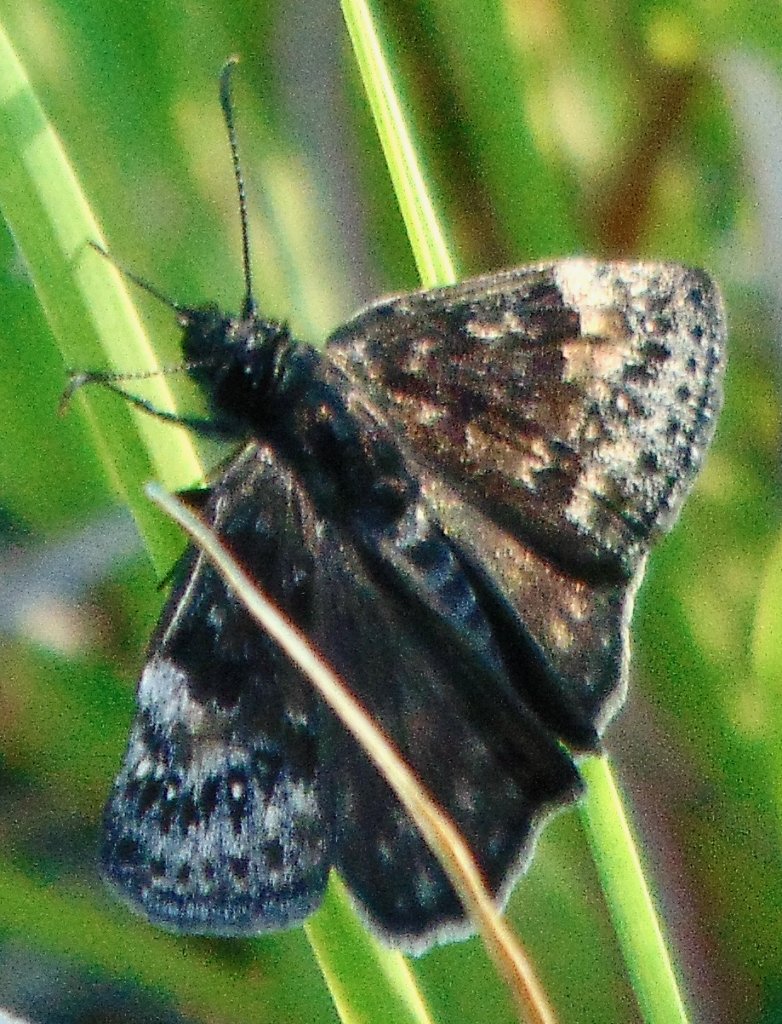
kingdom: Animalia
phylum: Arthropoda
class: Insecta
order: Lepidoptera
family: Hesperiidae
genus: Gesta
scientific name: Gesta
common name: Wild Indigo Duskywing
